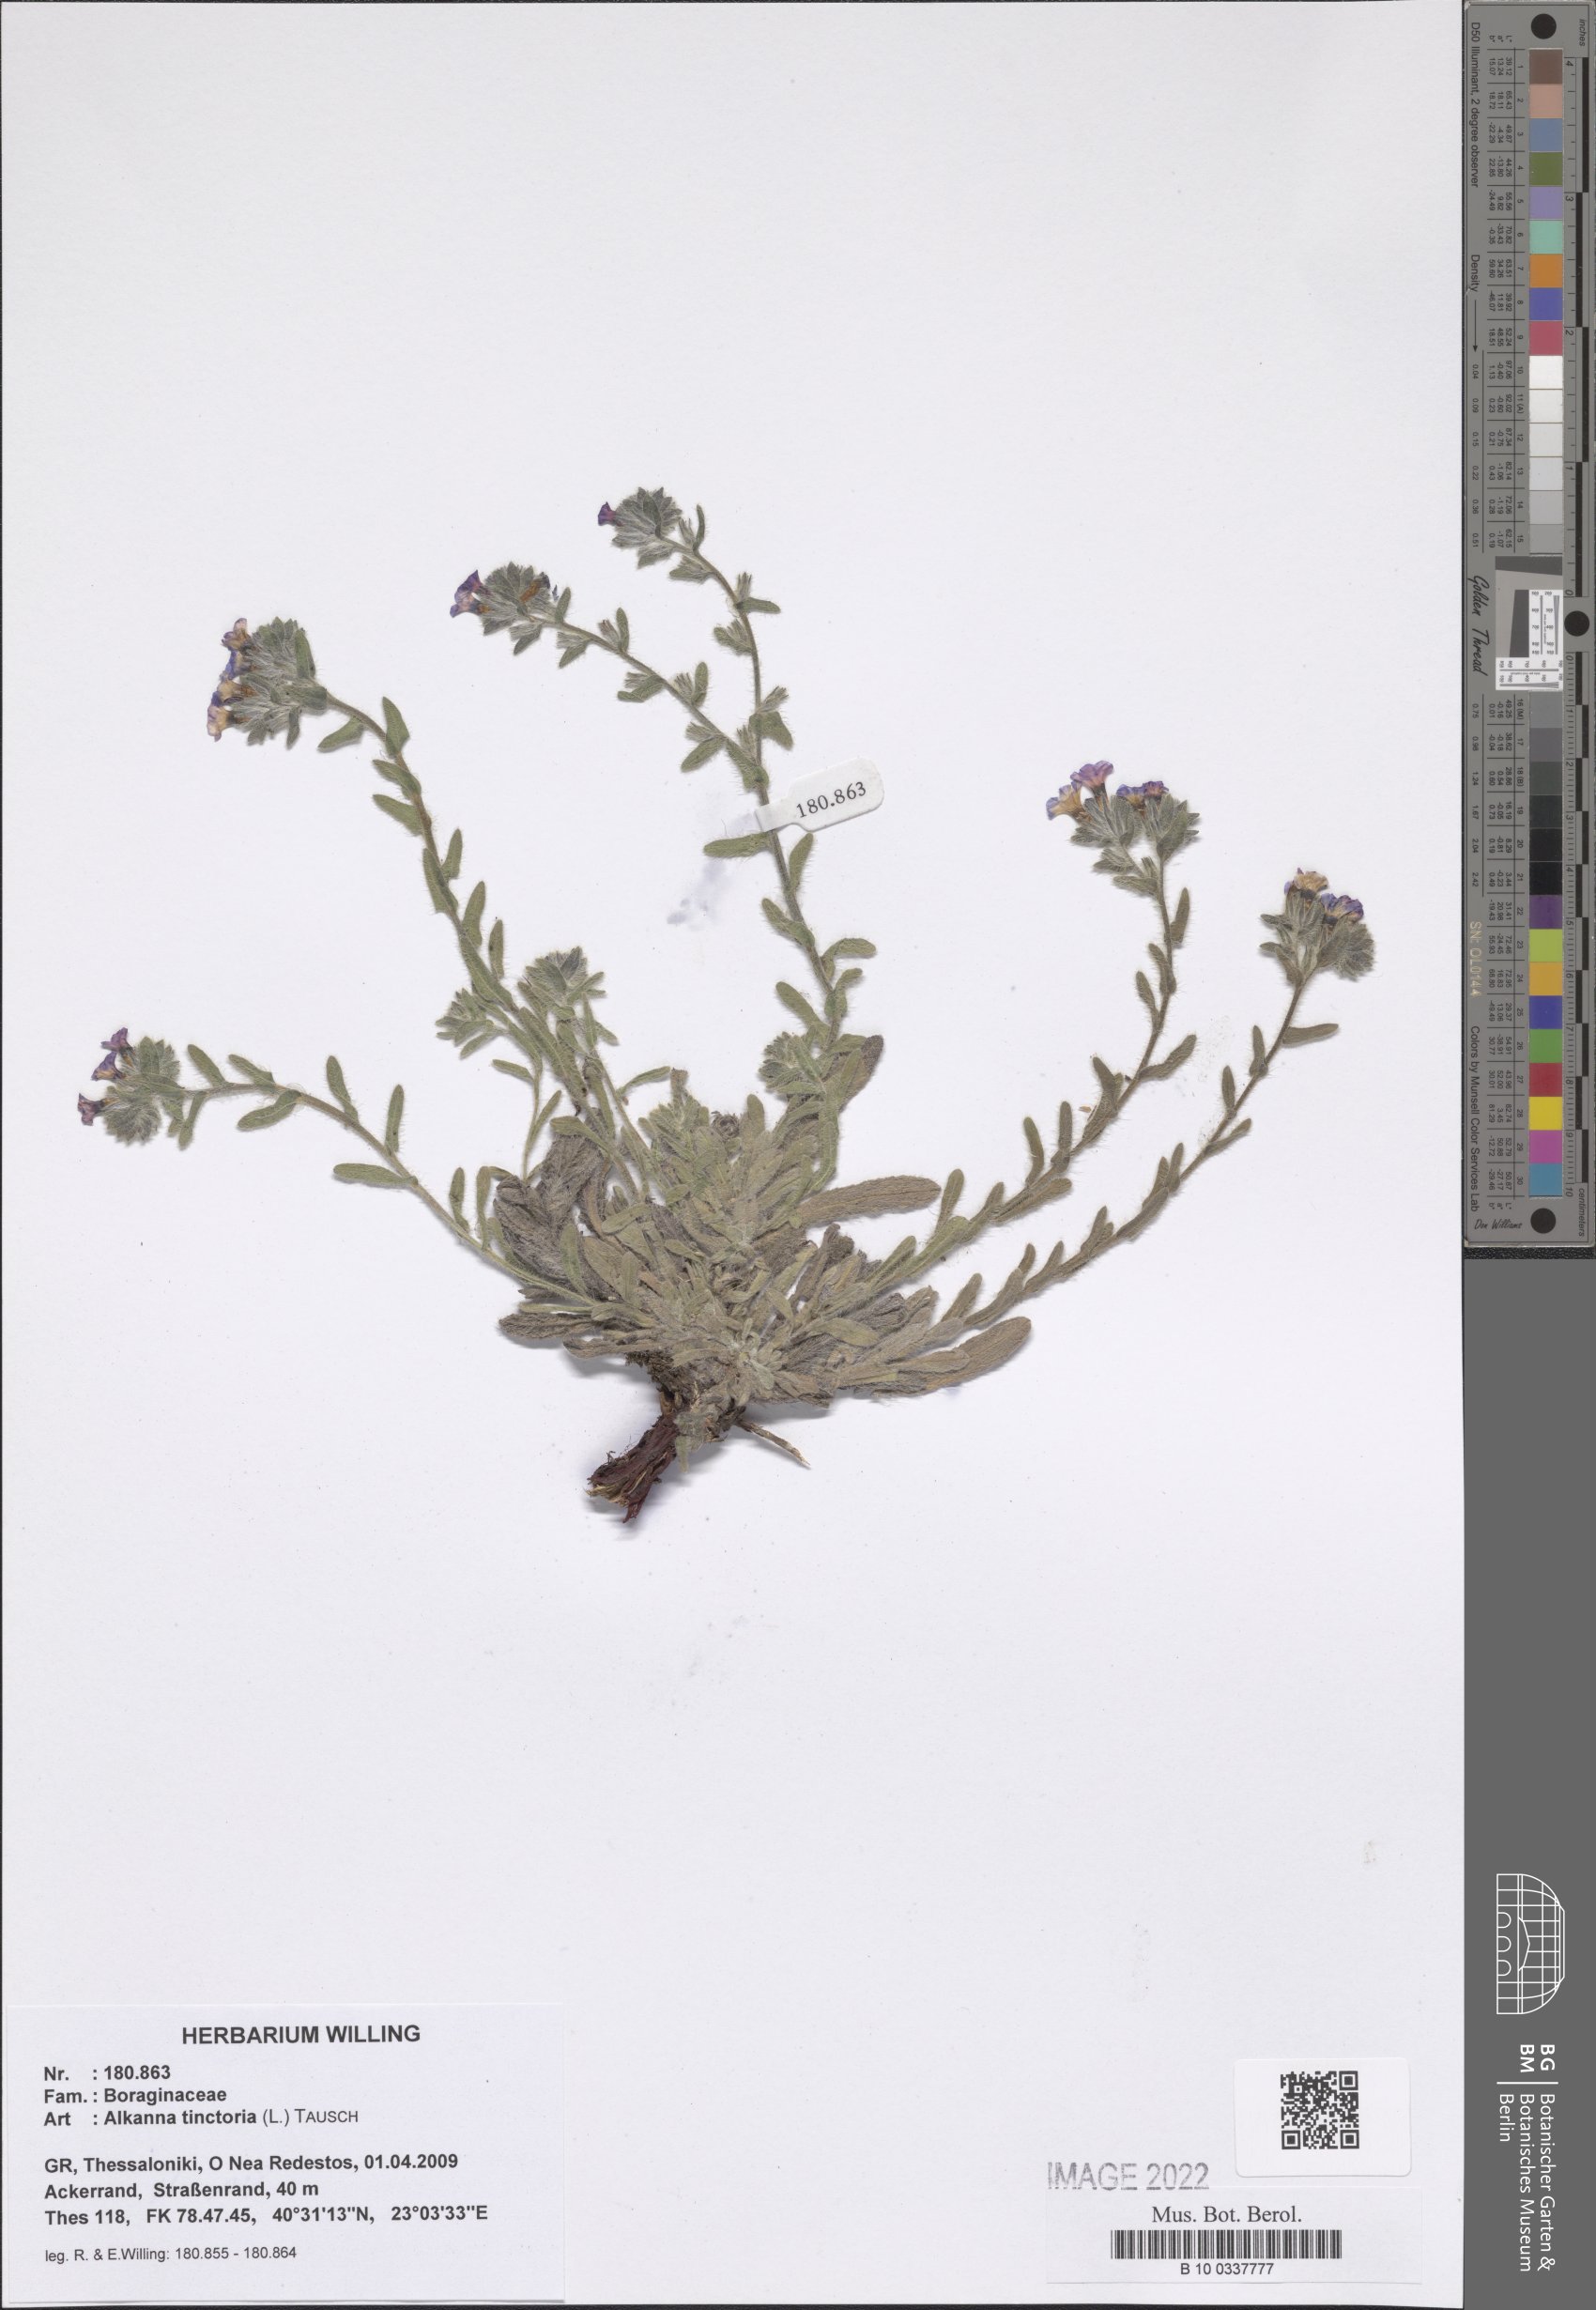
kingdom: Plantae
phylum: Tracheophyta
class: Magnoliopsida
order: Boraginales
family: Boraginaceae
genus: Alkanna
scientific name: Alkanna tinctoria
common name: Dyer's-alkanet
